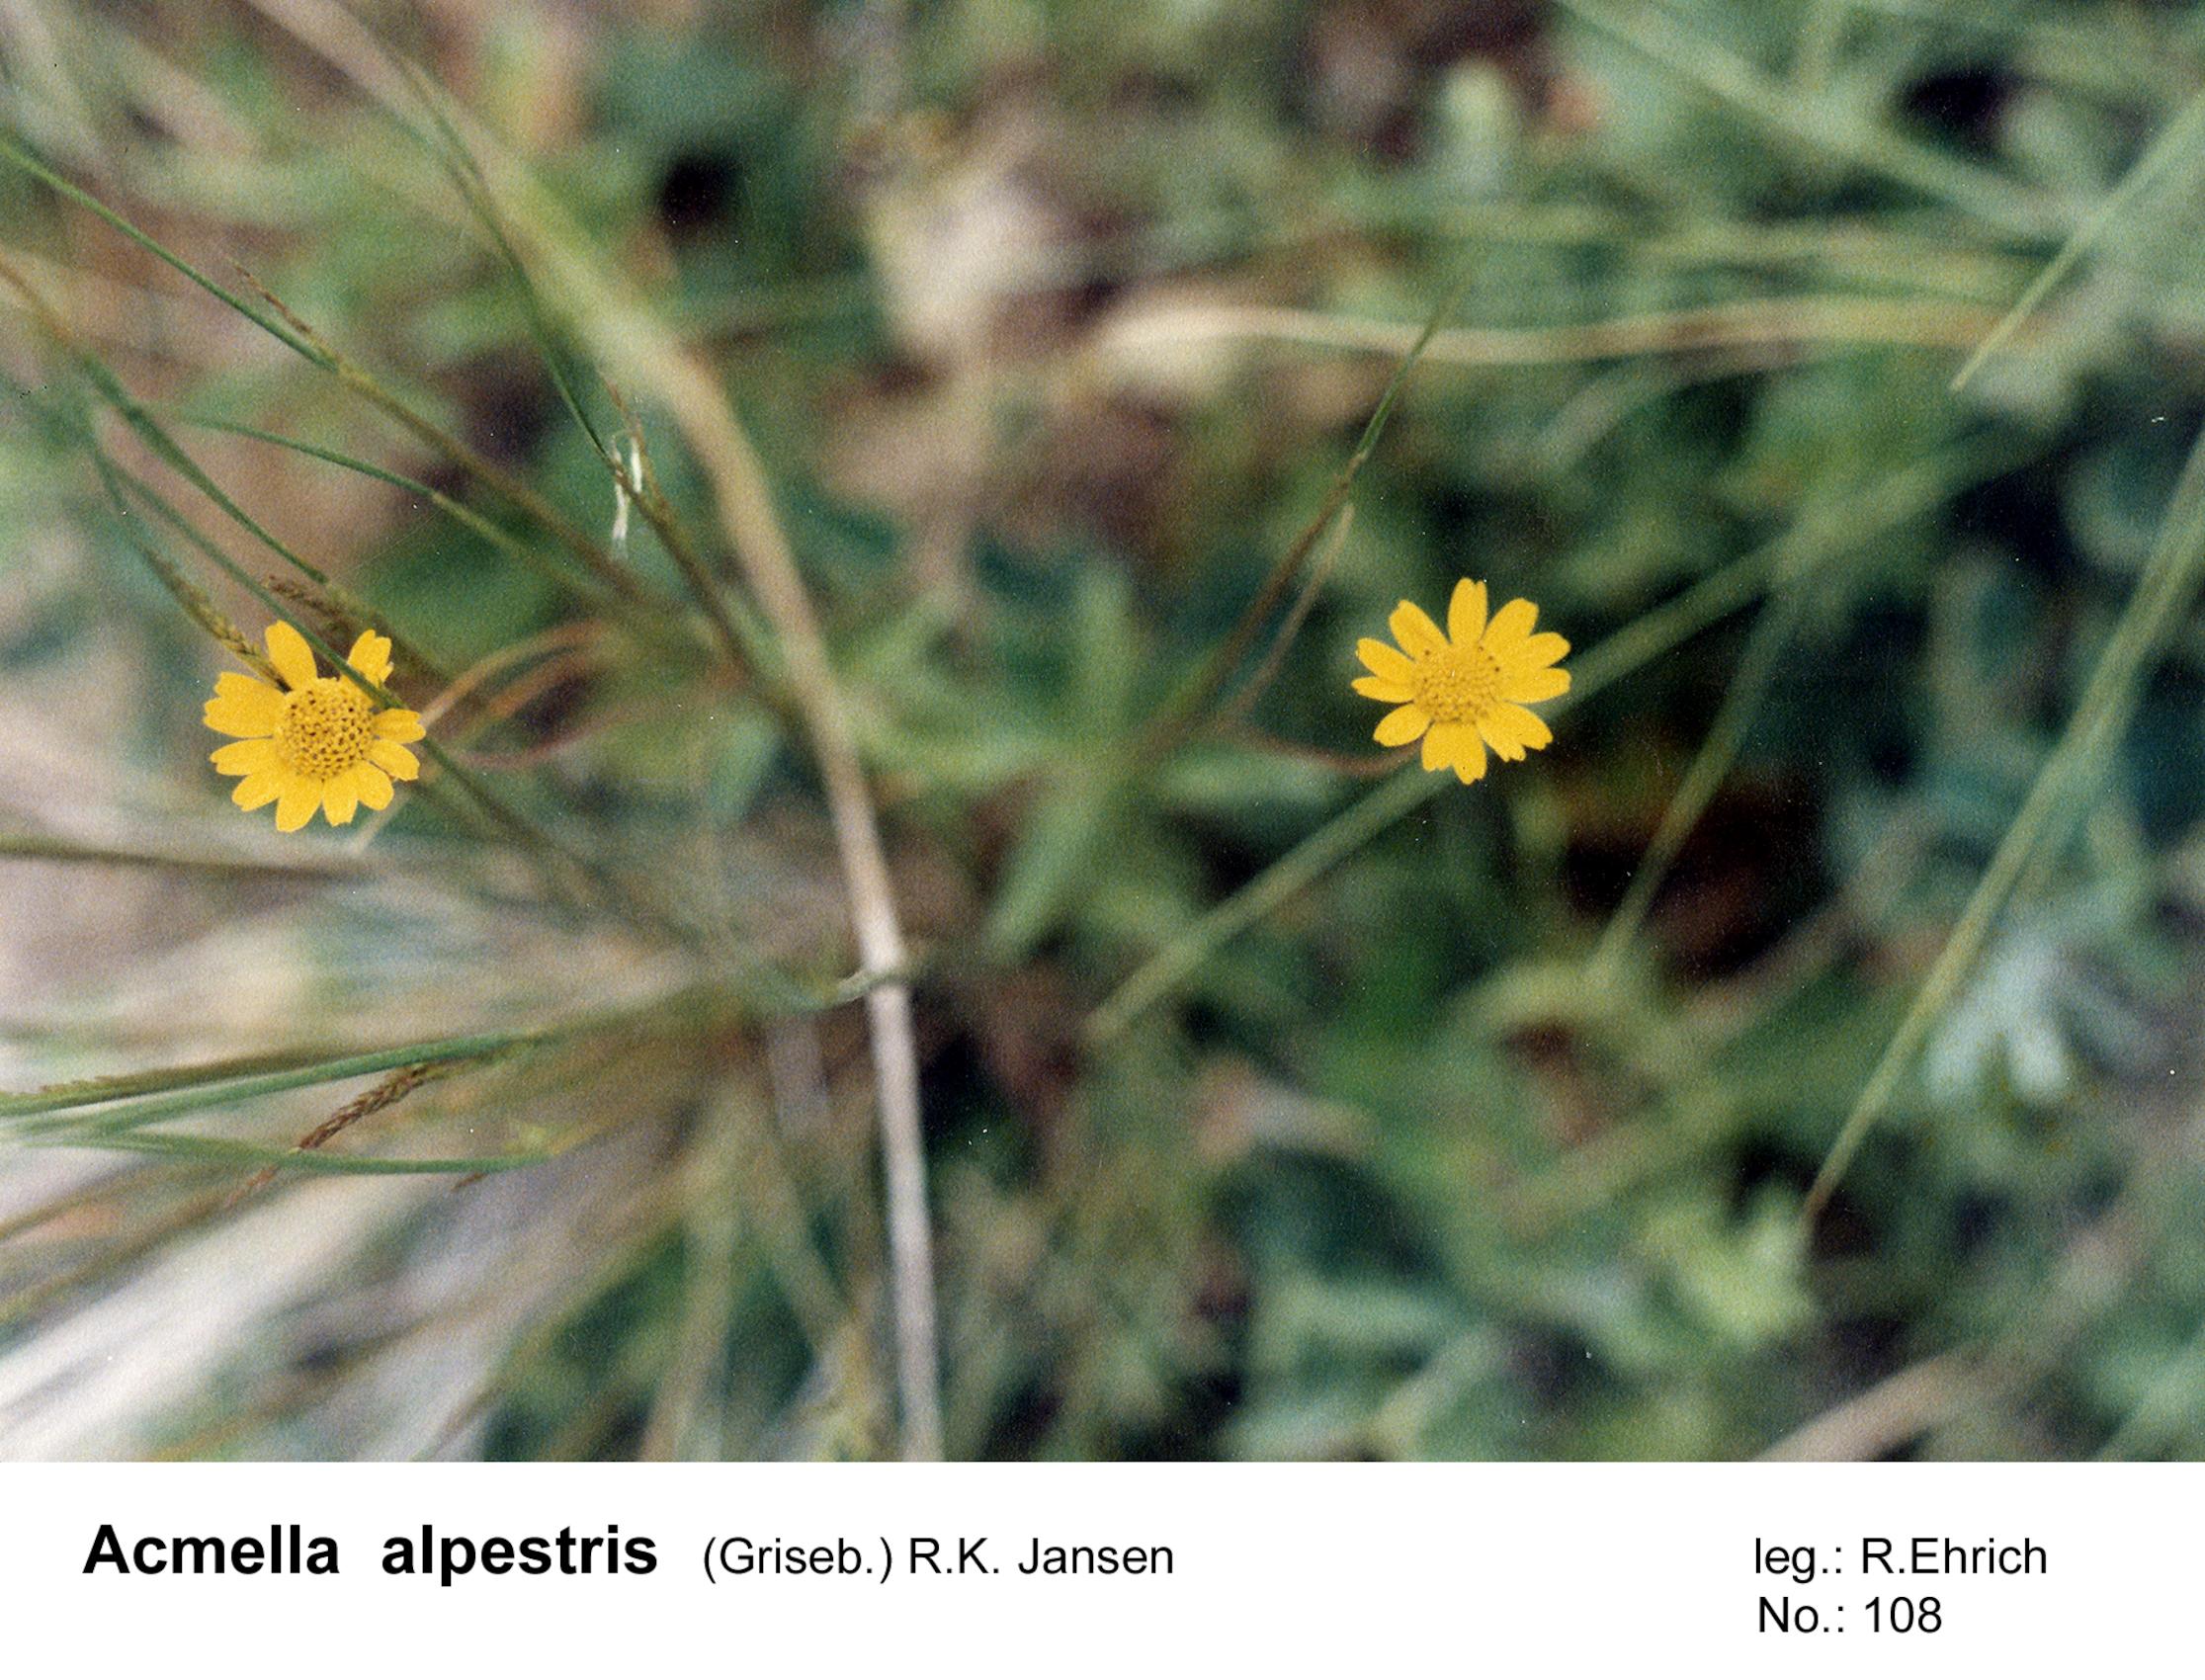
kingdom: Plantae
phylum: Tracheophyta
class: Magnoliopsida
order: Asterales
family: Asteraceae
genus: Acmella
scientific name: Acmella alpestris
